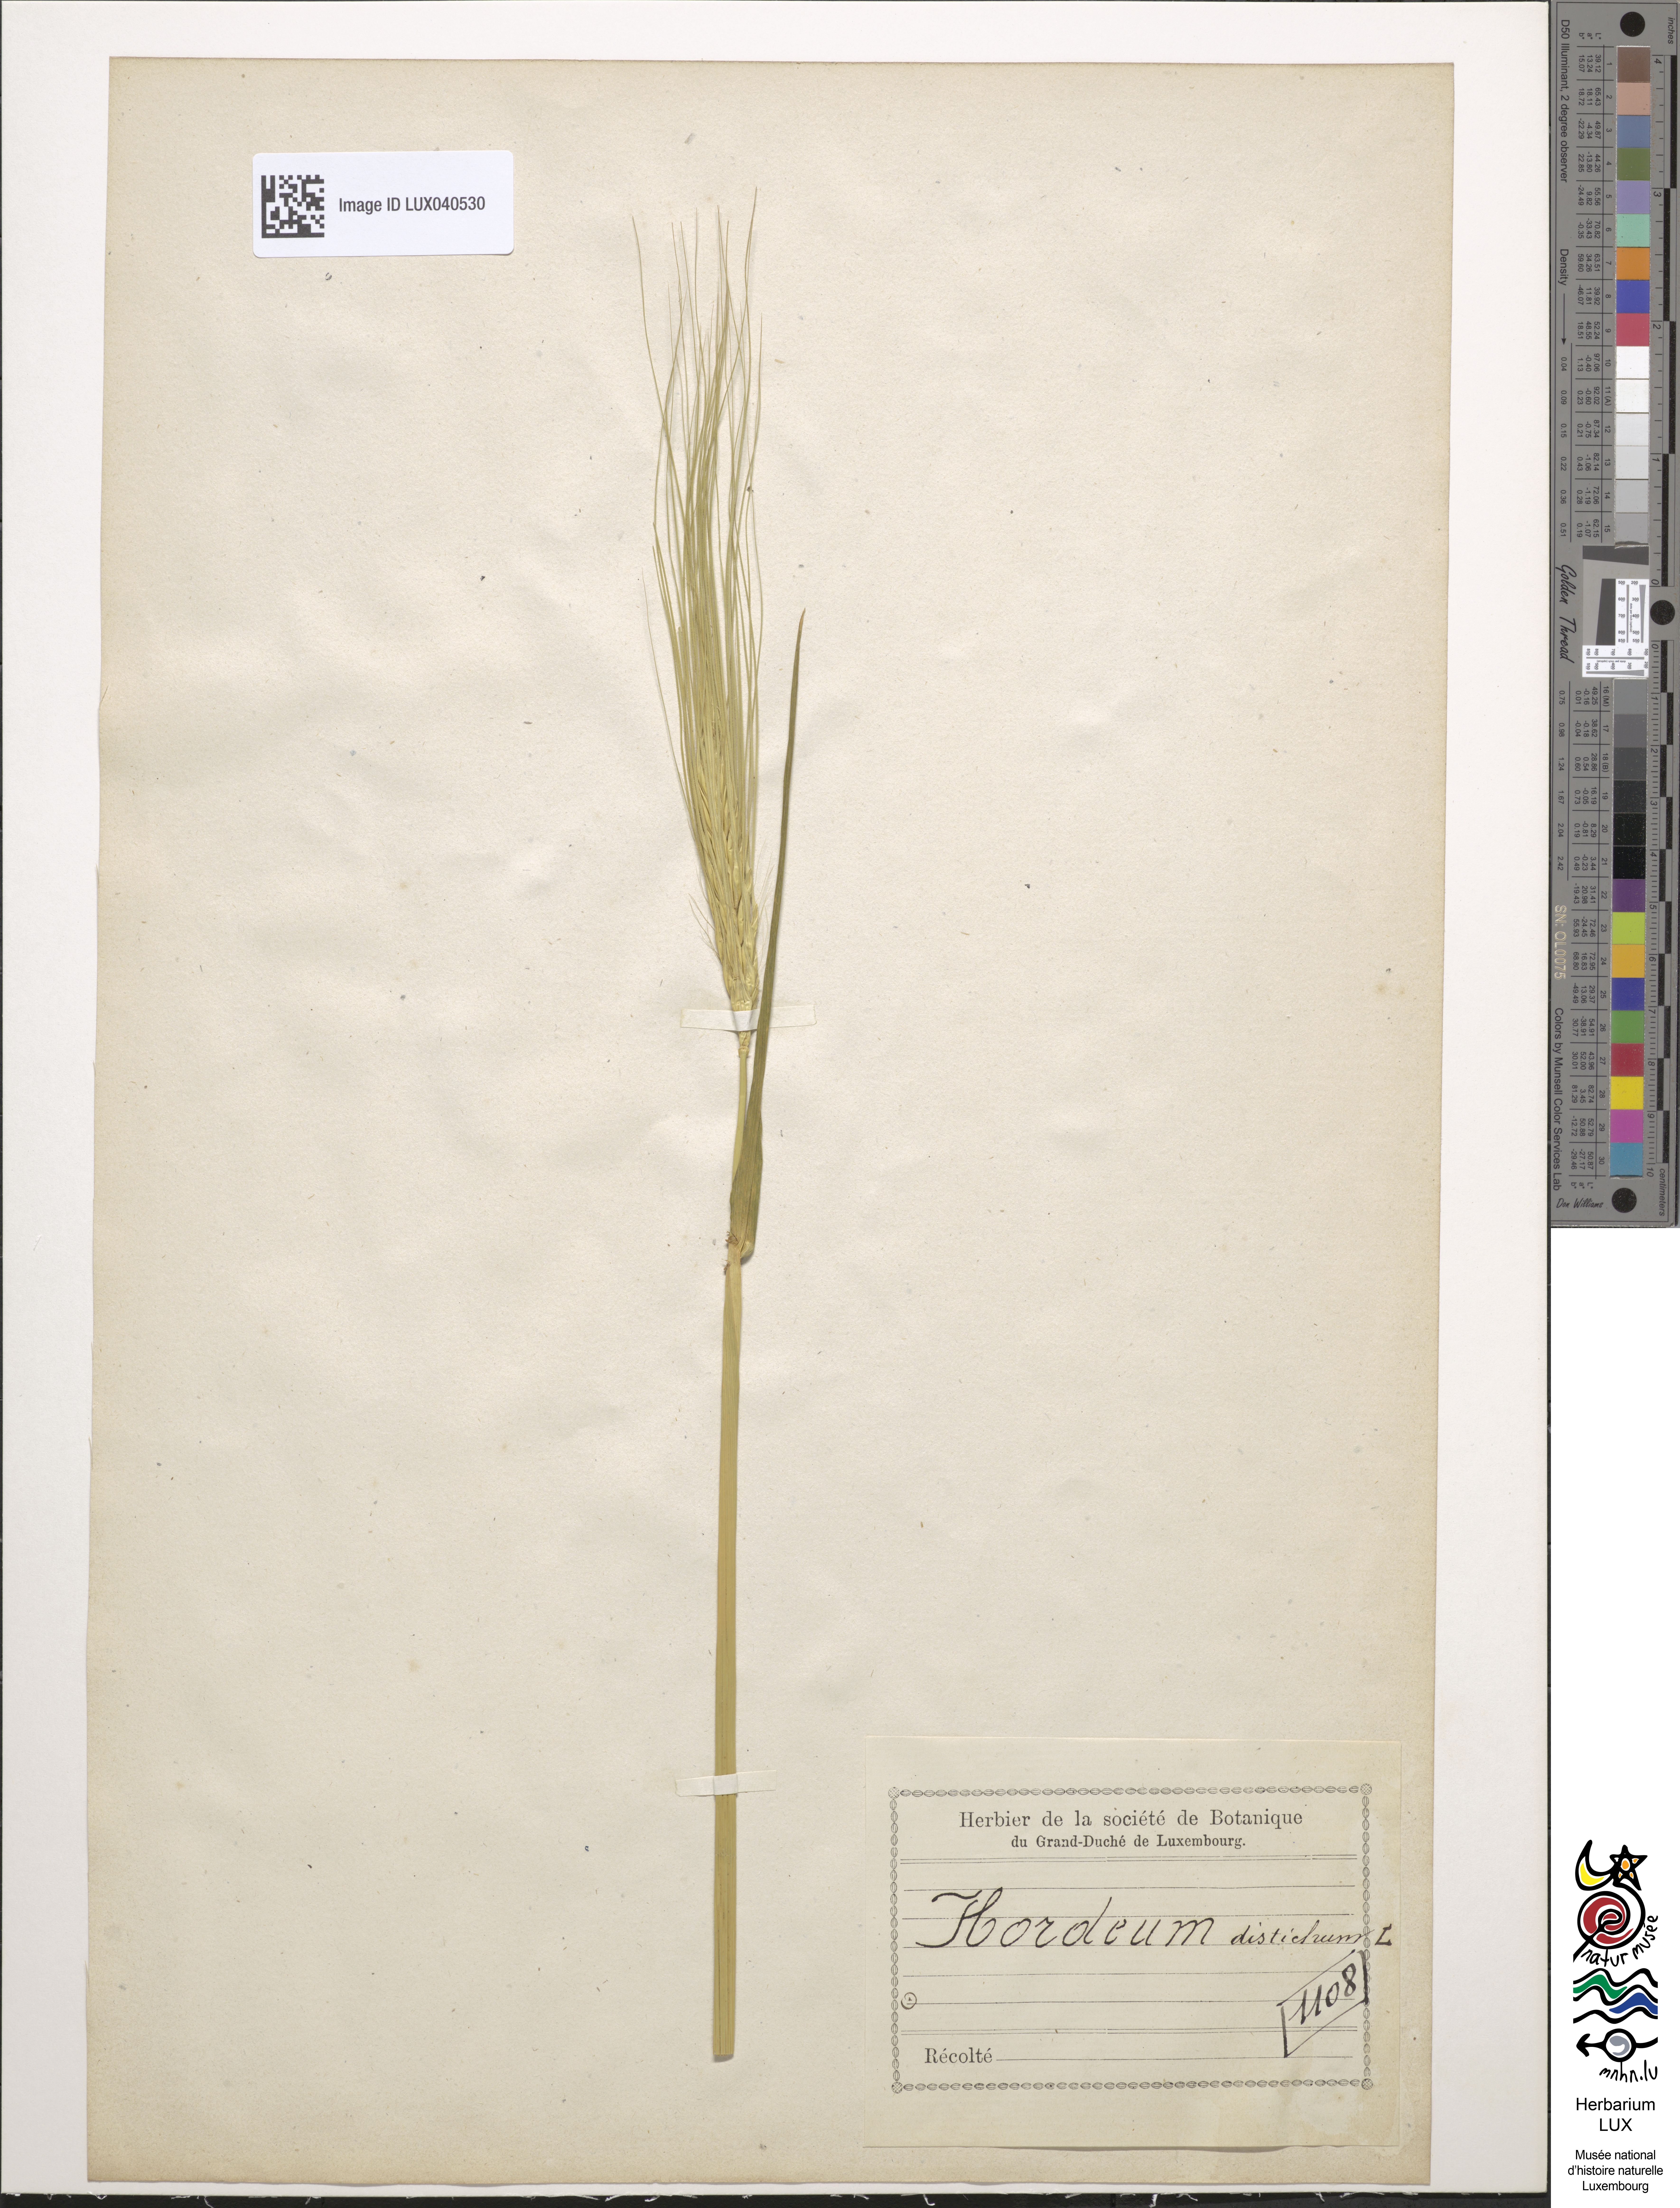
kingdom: Plantae
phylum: Tracheophyta
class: Liliopsida
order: Poales
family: Poaceae
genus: Hordeum
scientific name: Hordeum distichon
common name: Two-rowed barley
